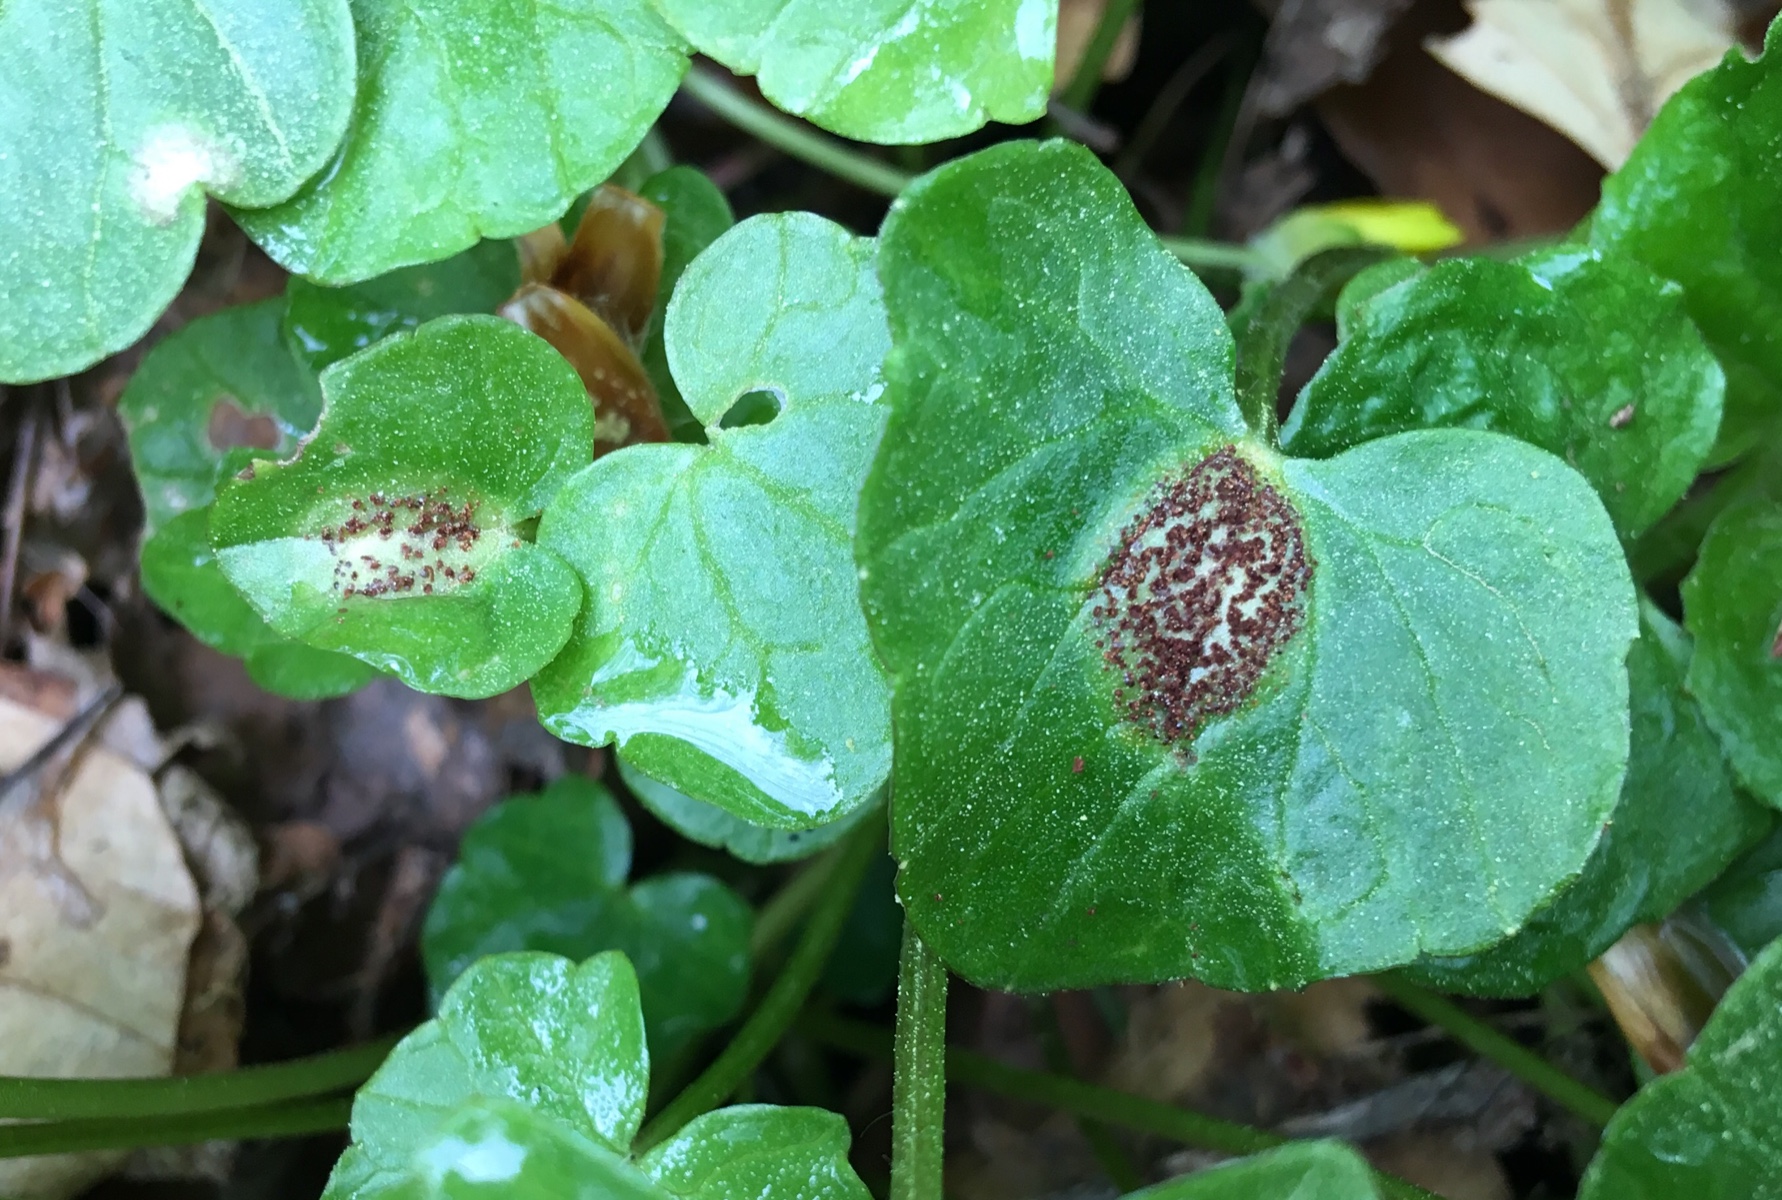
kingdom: Fungi
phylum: Basidiomycota
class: Pucciniomycetes
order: Pucciniales
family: Pucciniaceae
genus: Uromyces
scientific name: Uromyces ficariae
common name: vorterod-encellerust
